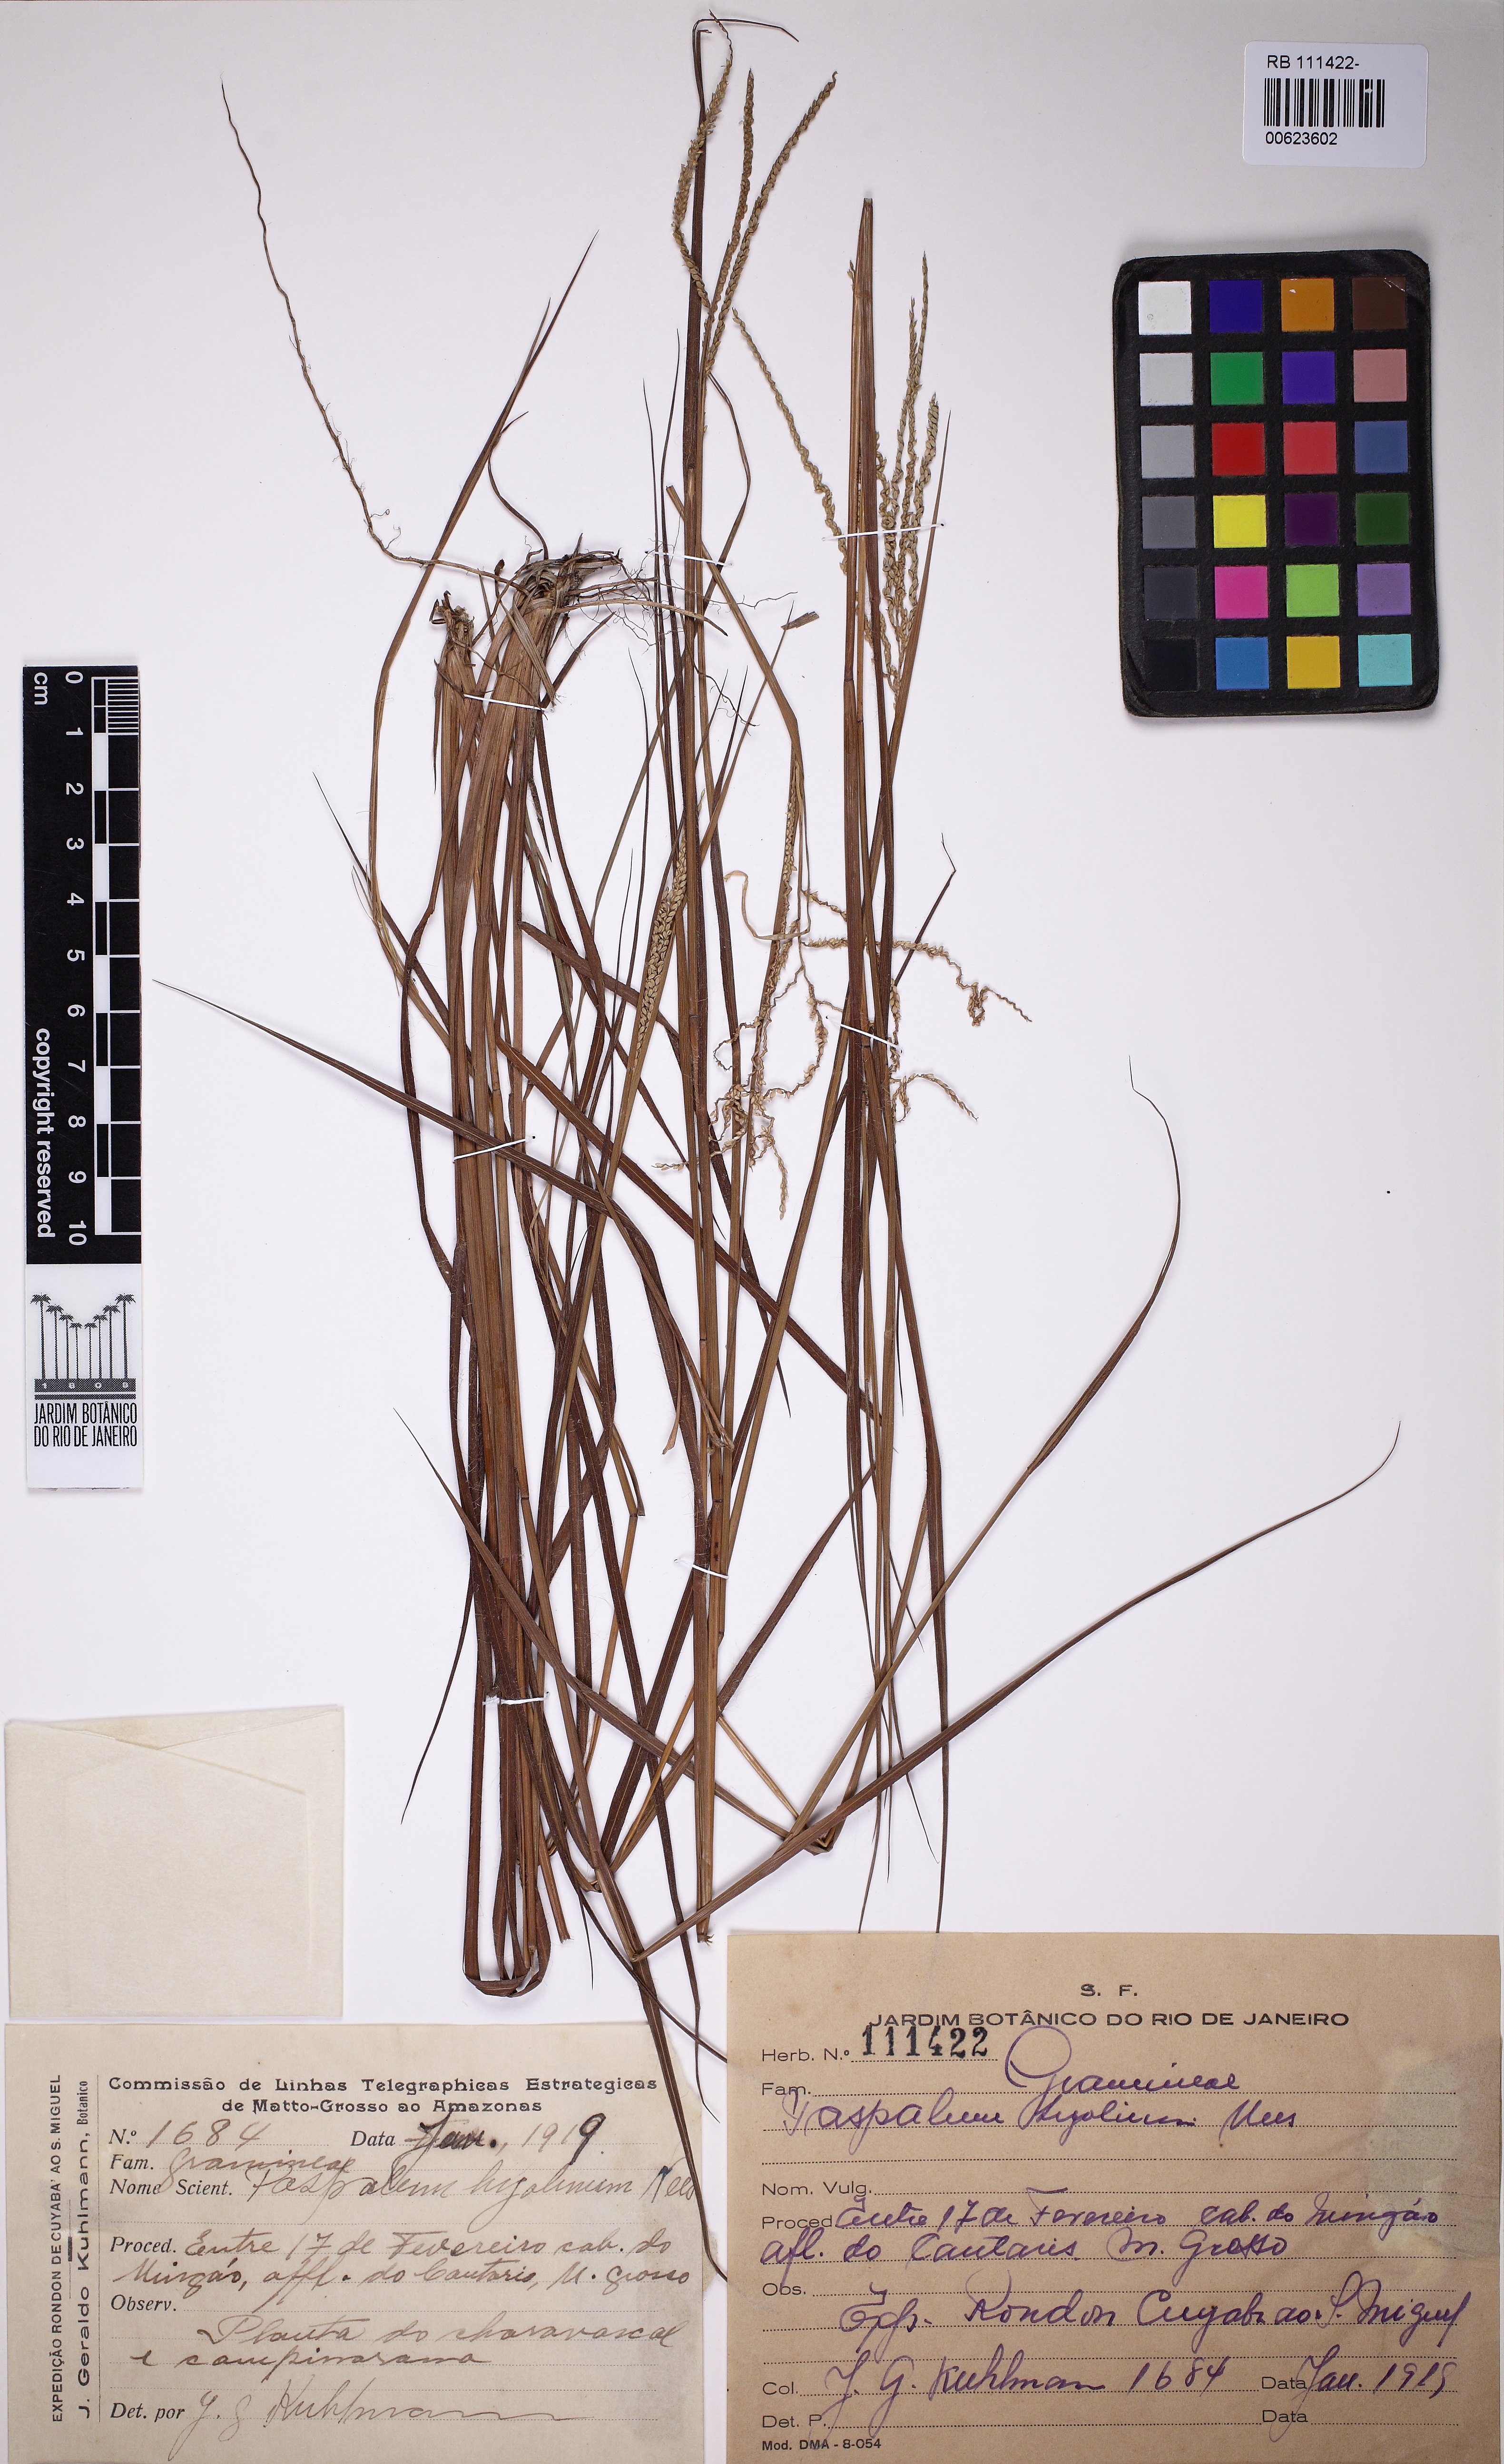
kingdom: Plantae
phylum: Tracheophyta
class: Liliopsida
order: Poales
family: Poaceae
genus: Paspalum
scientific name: Paspalum hyalinum
